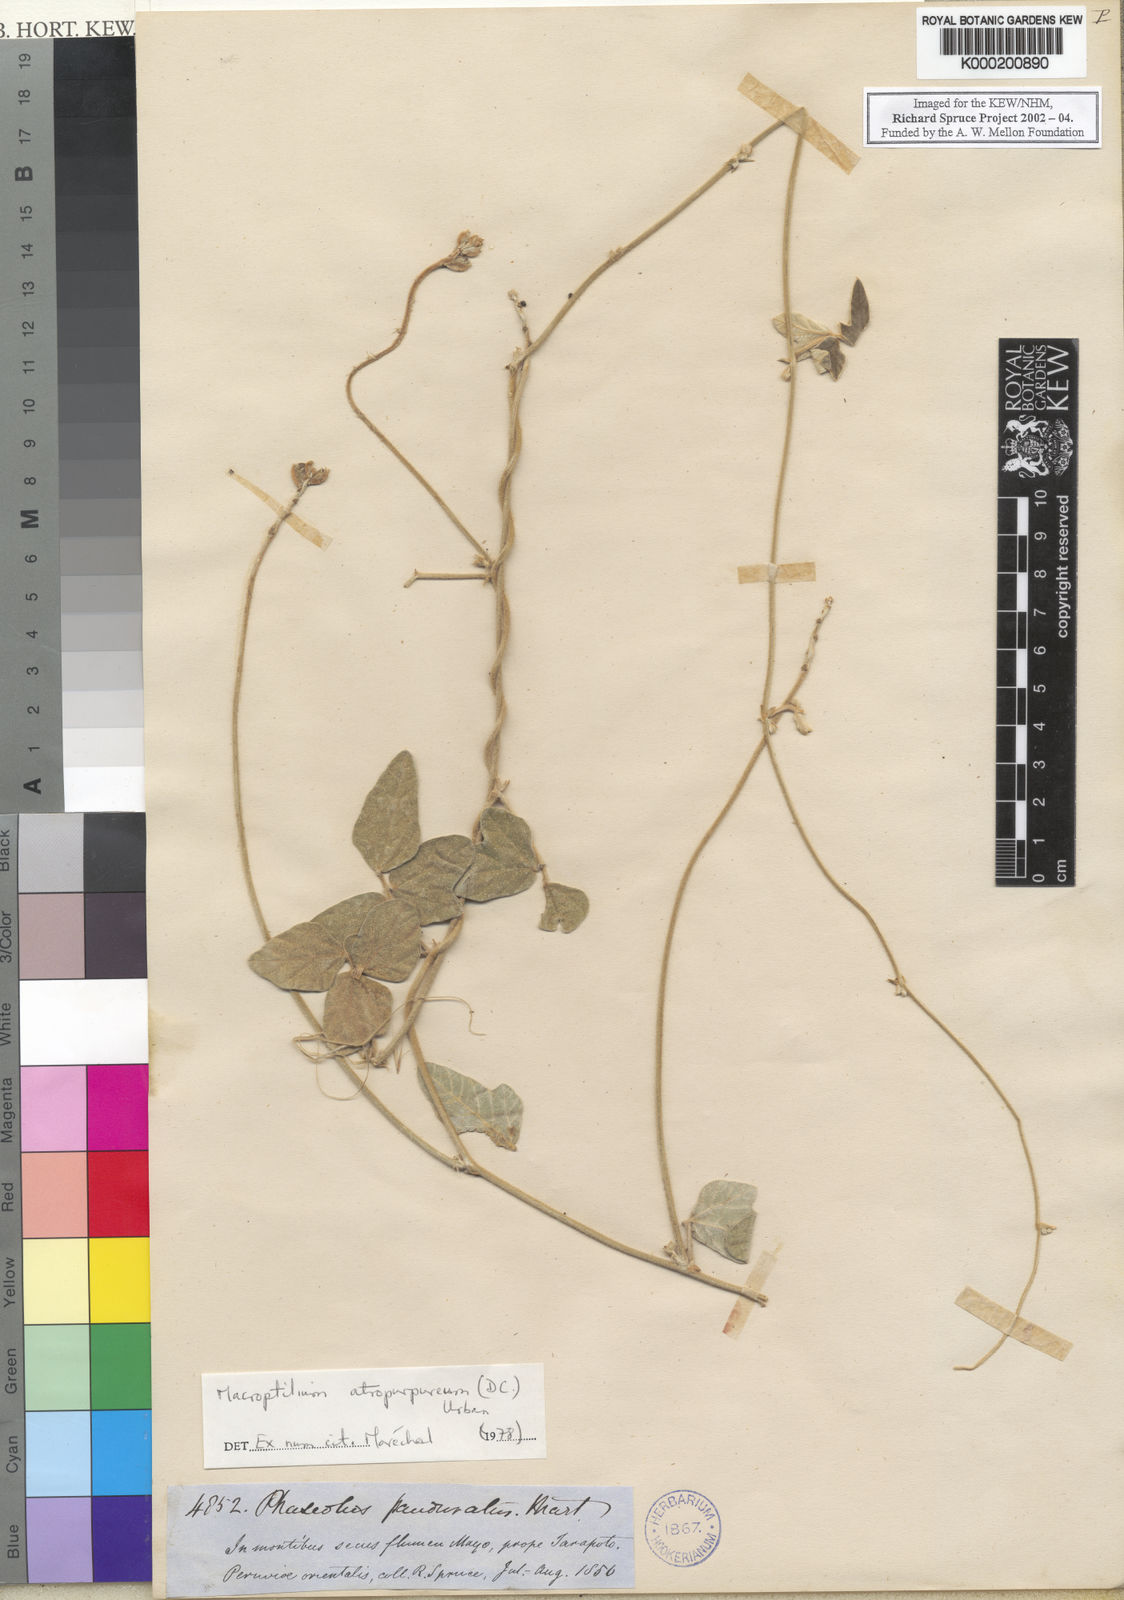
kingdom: Plantae
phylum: Tracheophyta
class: Magnoliopsida
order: Fabales
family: Fabaceae
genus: Macroptilium
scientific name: Macroptilium atropurpureum
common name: Purple bushbean
